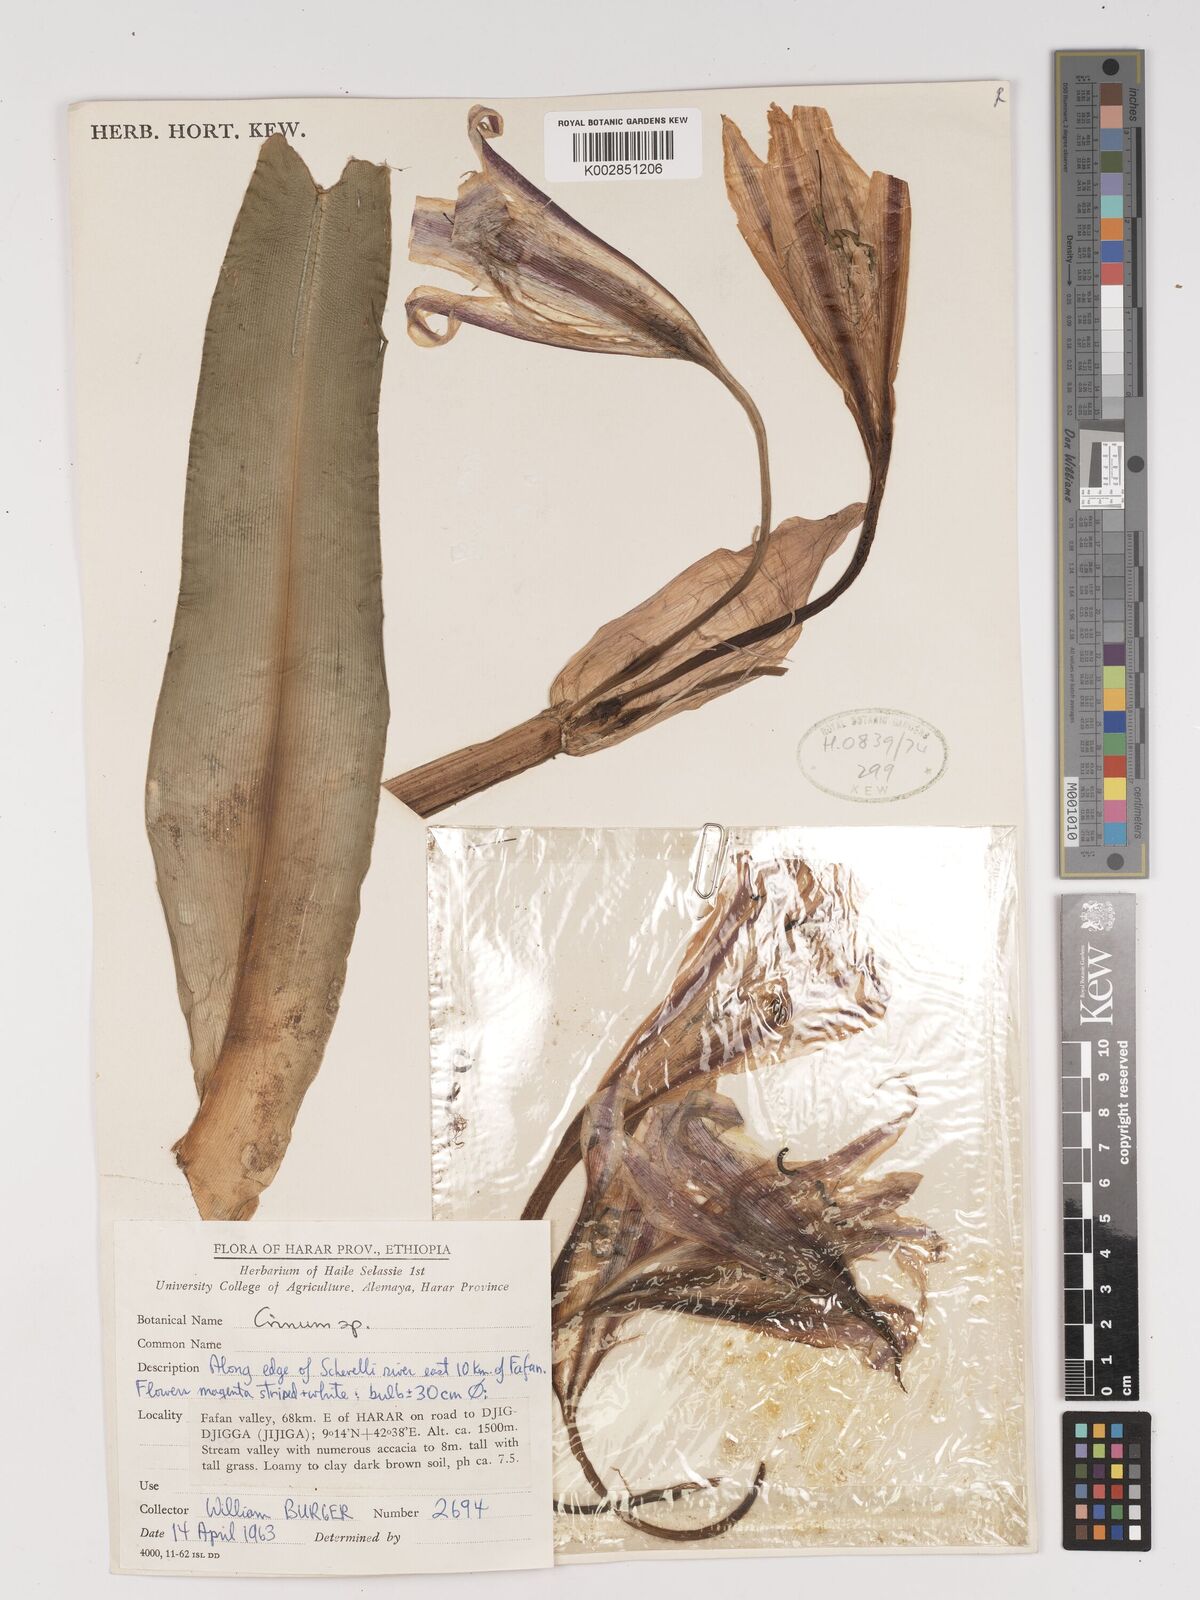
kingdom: Plantae
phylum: Tracheophyta
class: Liliopsida
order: Asparagales
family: Amaryllidaceae
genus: Crinum
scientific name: Crinum zeylanicum
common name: Ceylon swamplily
